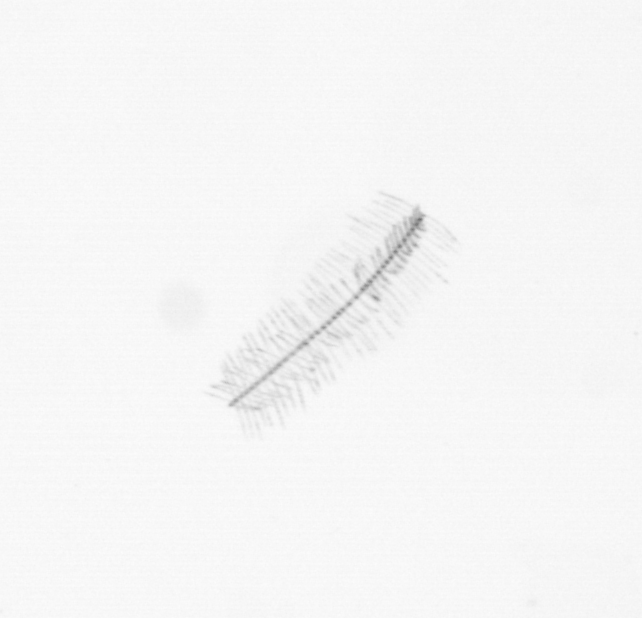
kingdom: Chromista
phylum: Ochrophyta
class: Bacillariophyceae
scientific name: Bacillariophyceae
